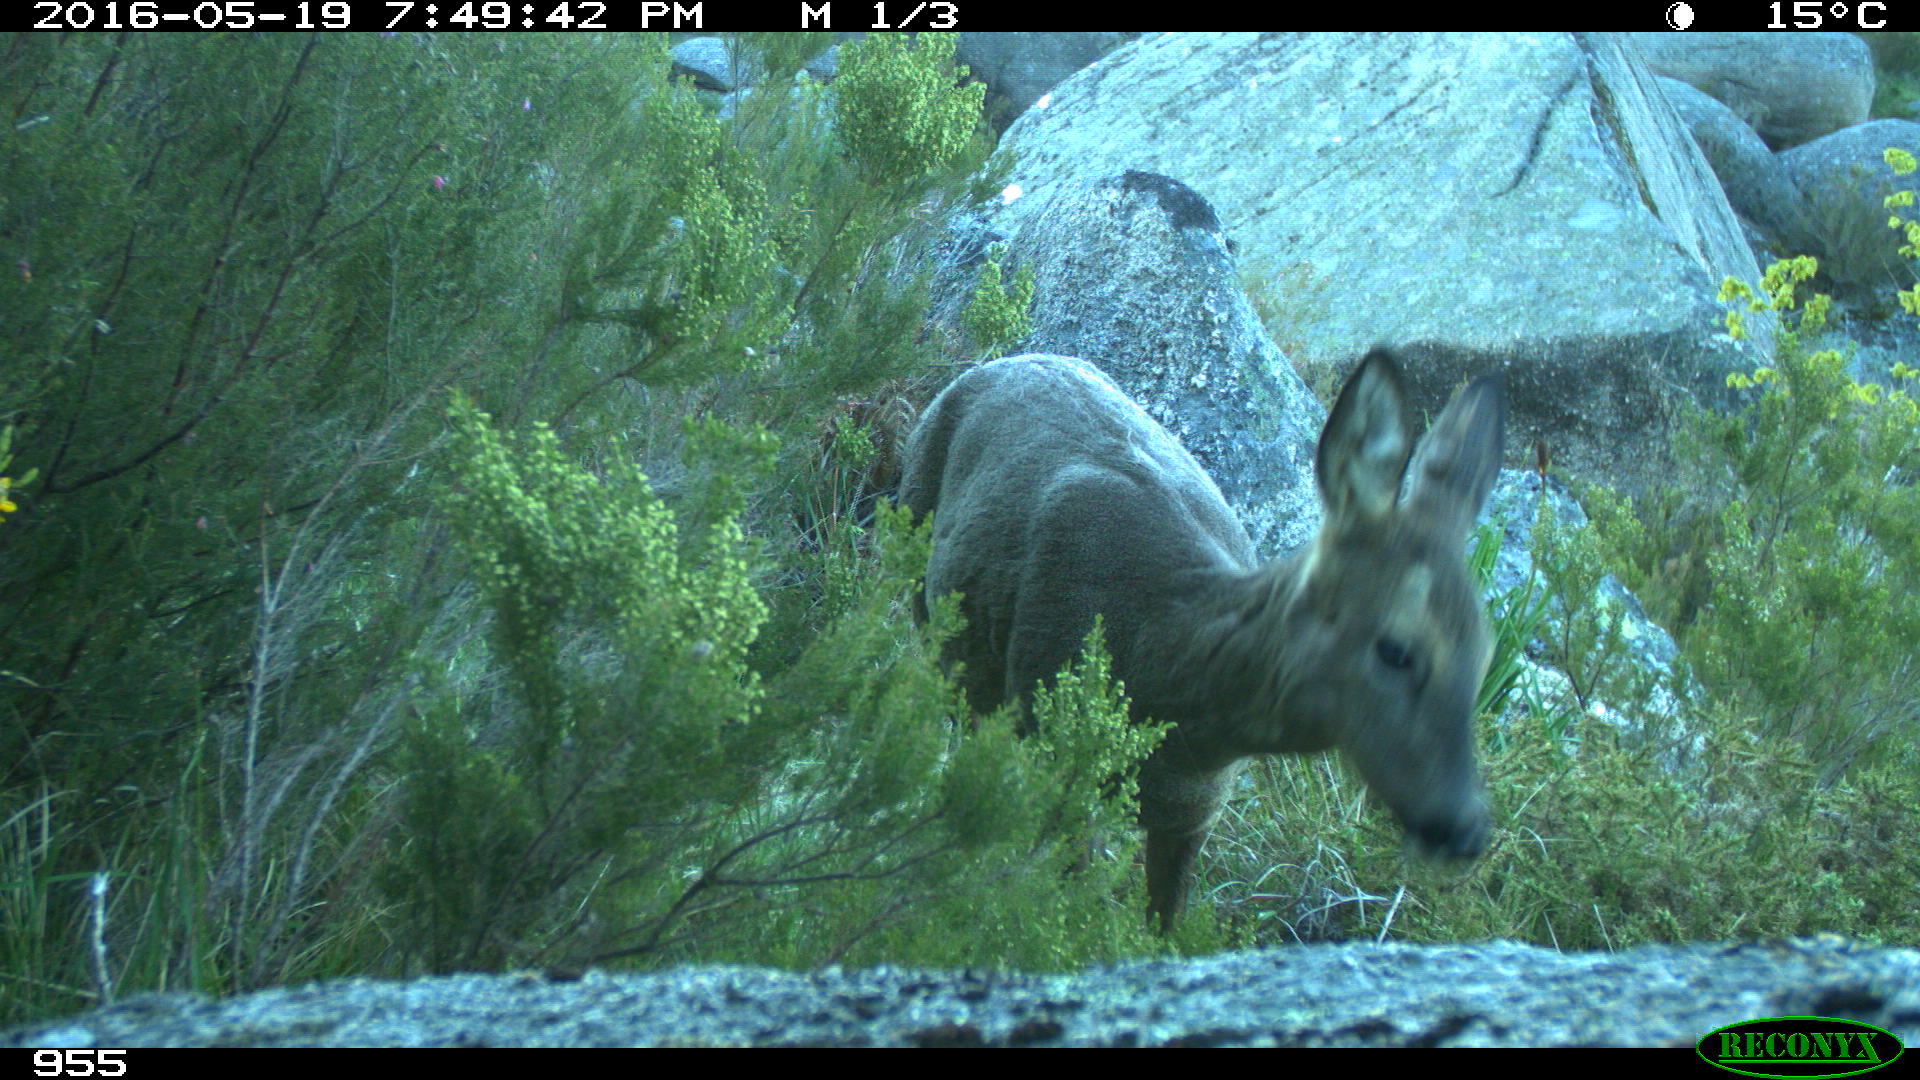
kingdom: Animalia
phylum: Chordata
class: Mammalia
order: Artiodactyla
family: Cervidae
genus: Capreolus
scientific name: Capreolus capreolus
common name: Western roe deer
